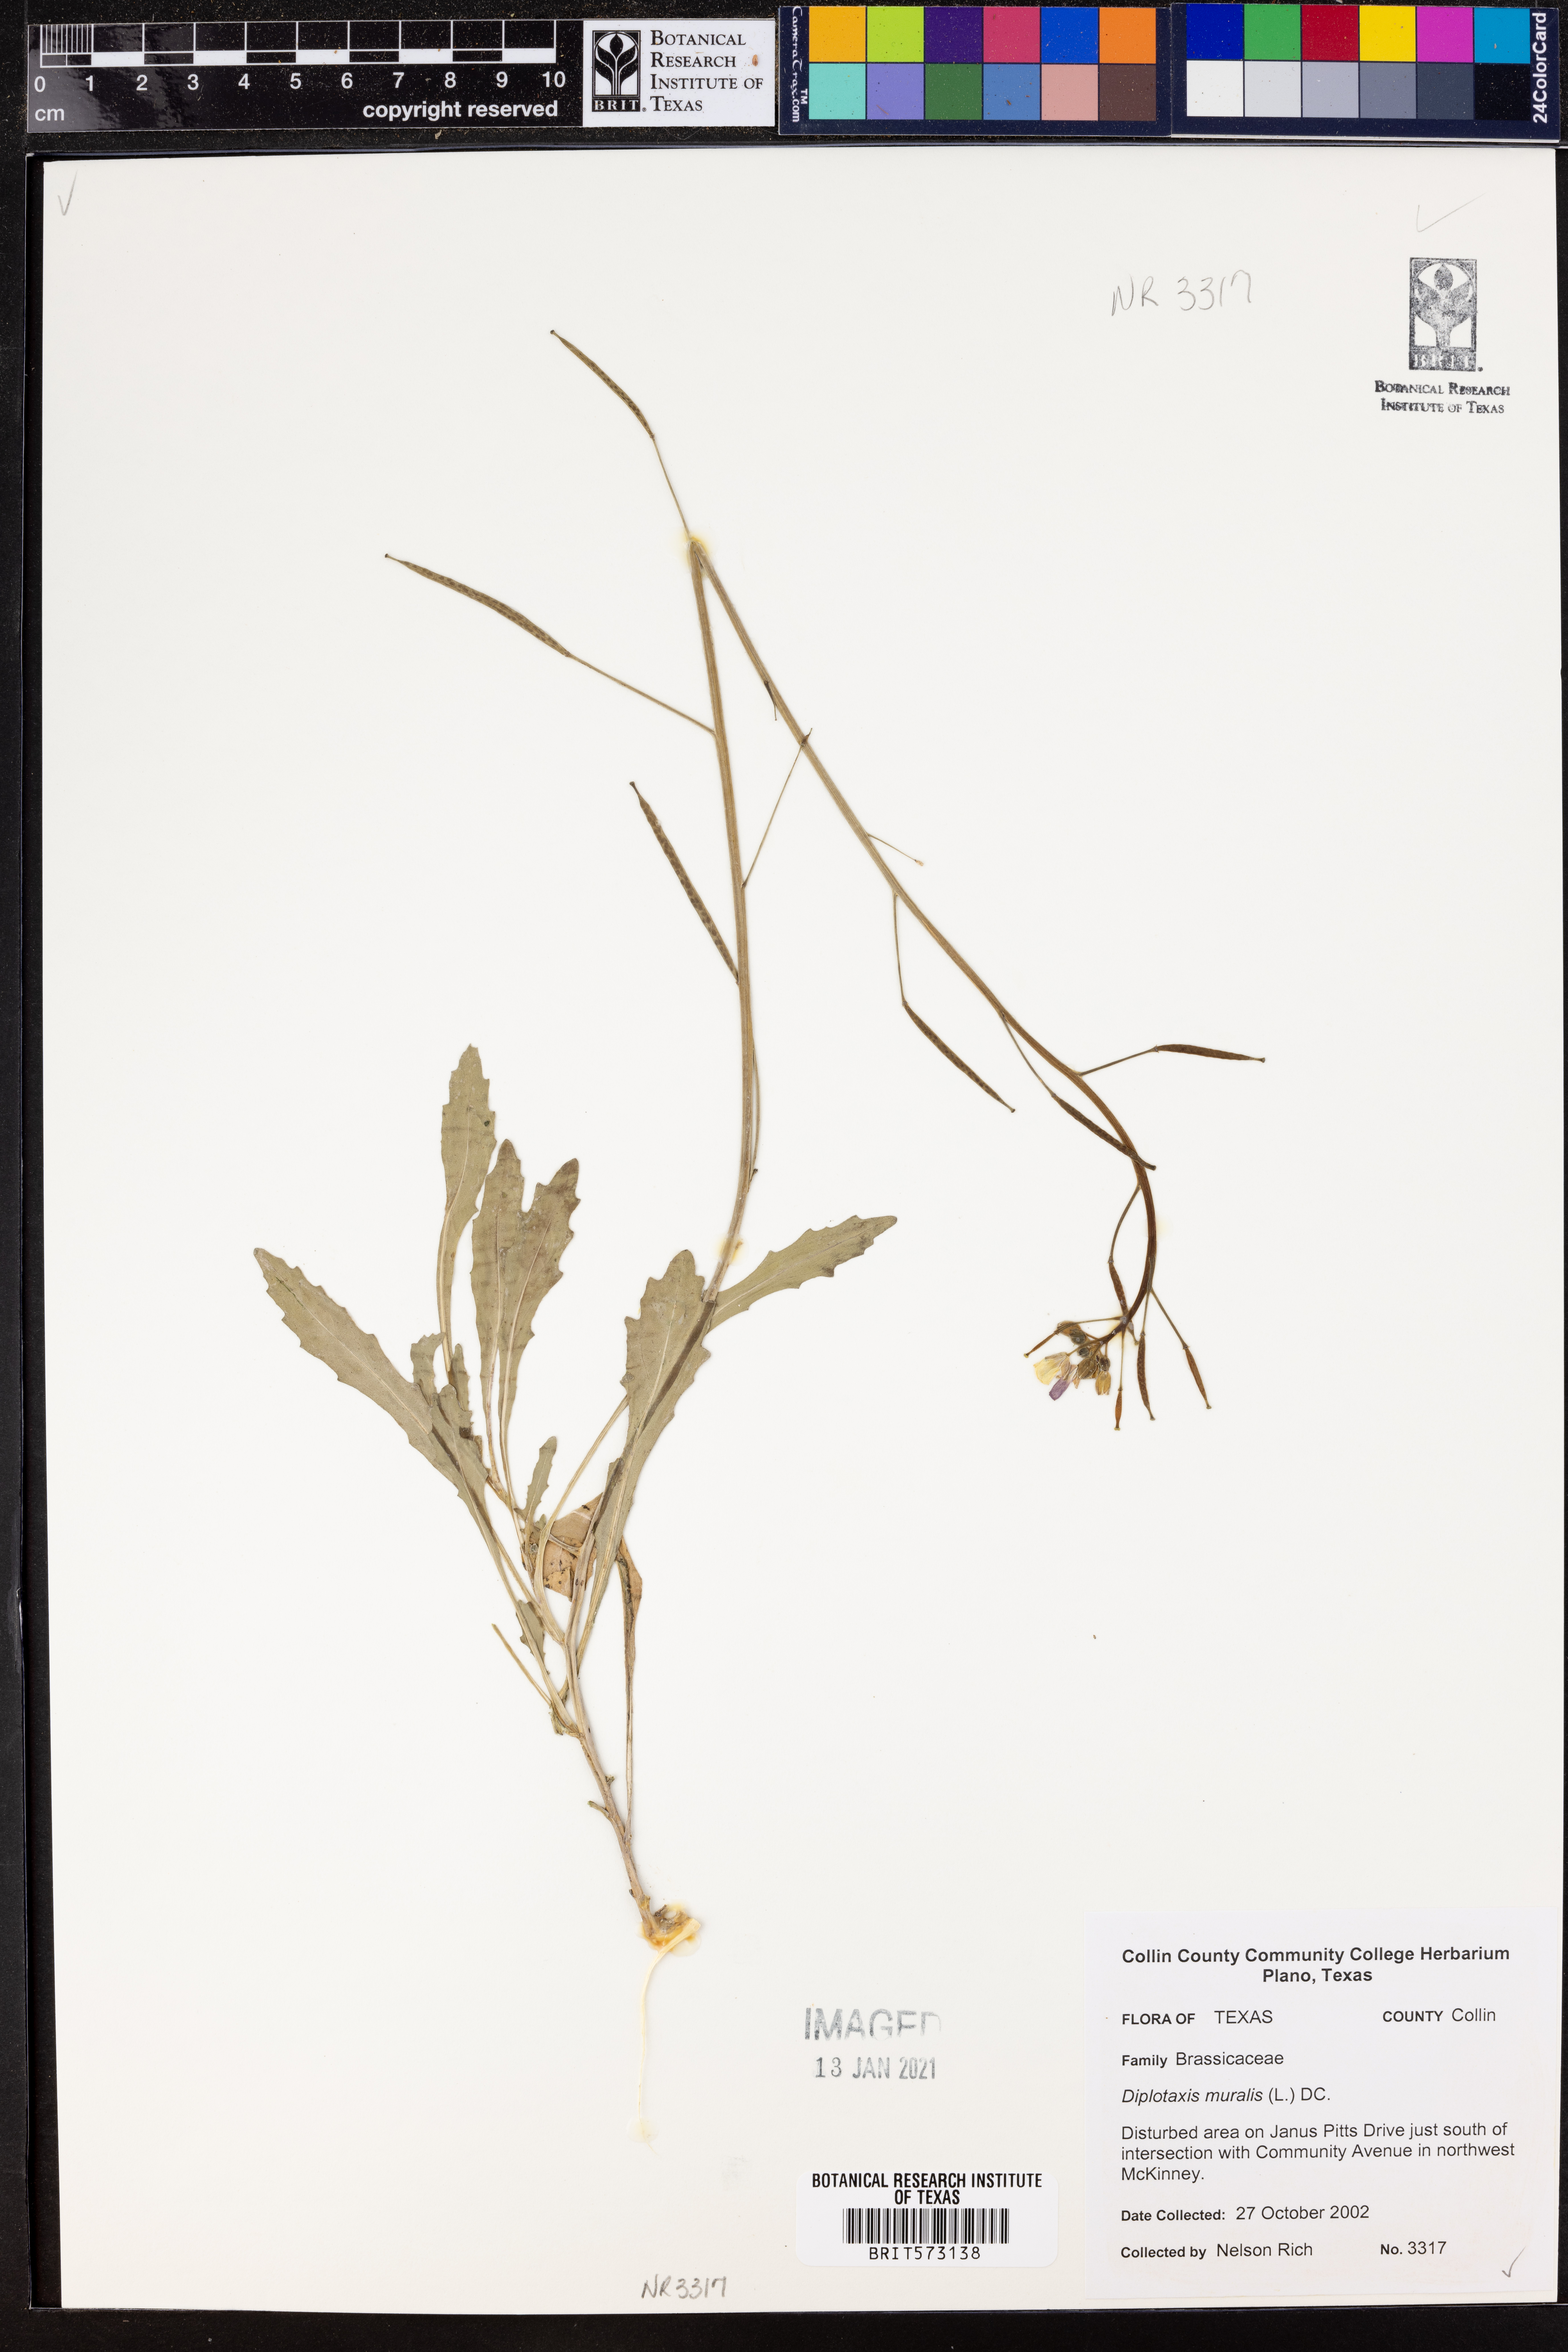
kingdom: Plantae
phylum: Tracheophyta
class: Magnoliopsida
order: Brassicales
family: Brassicaceae
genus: Diplotaxis
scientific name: Diplotaxis muralis
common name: Annual wall-rocket
